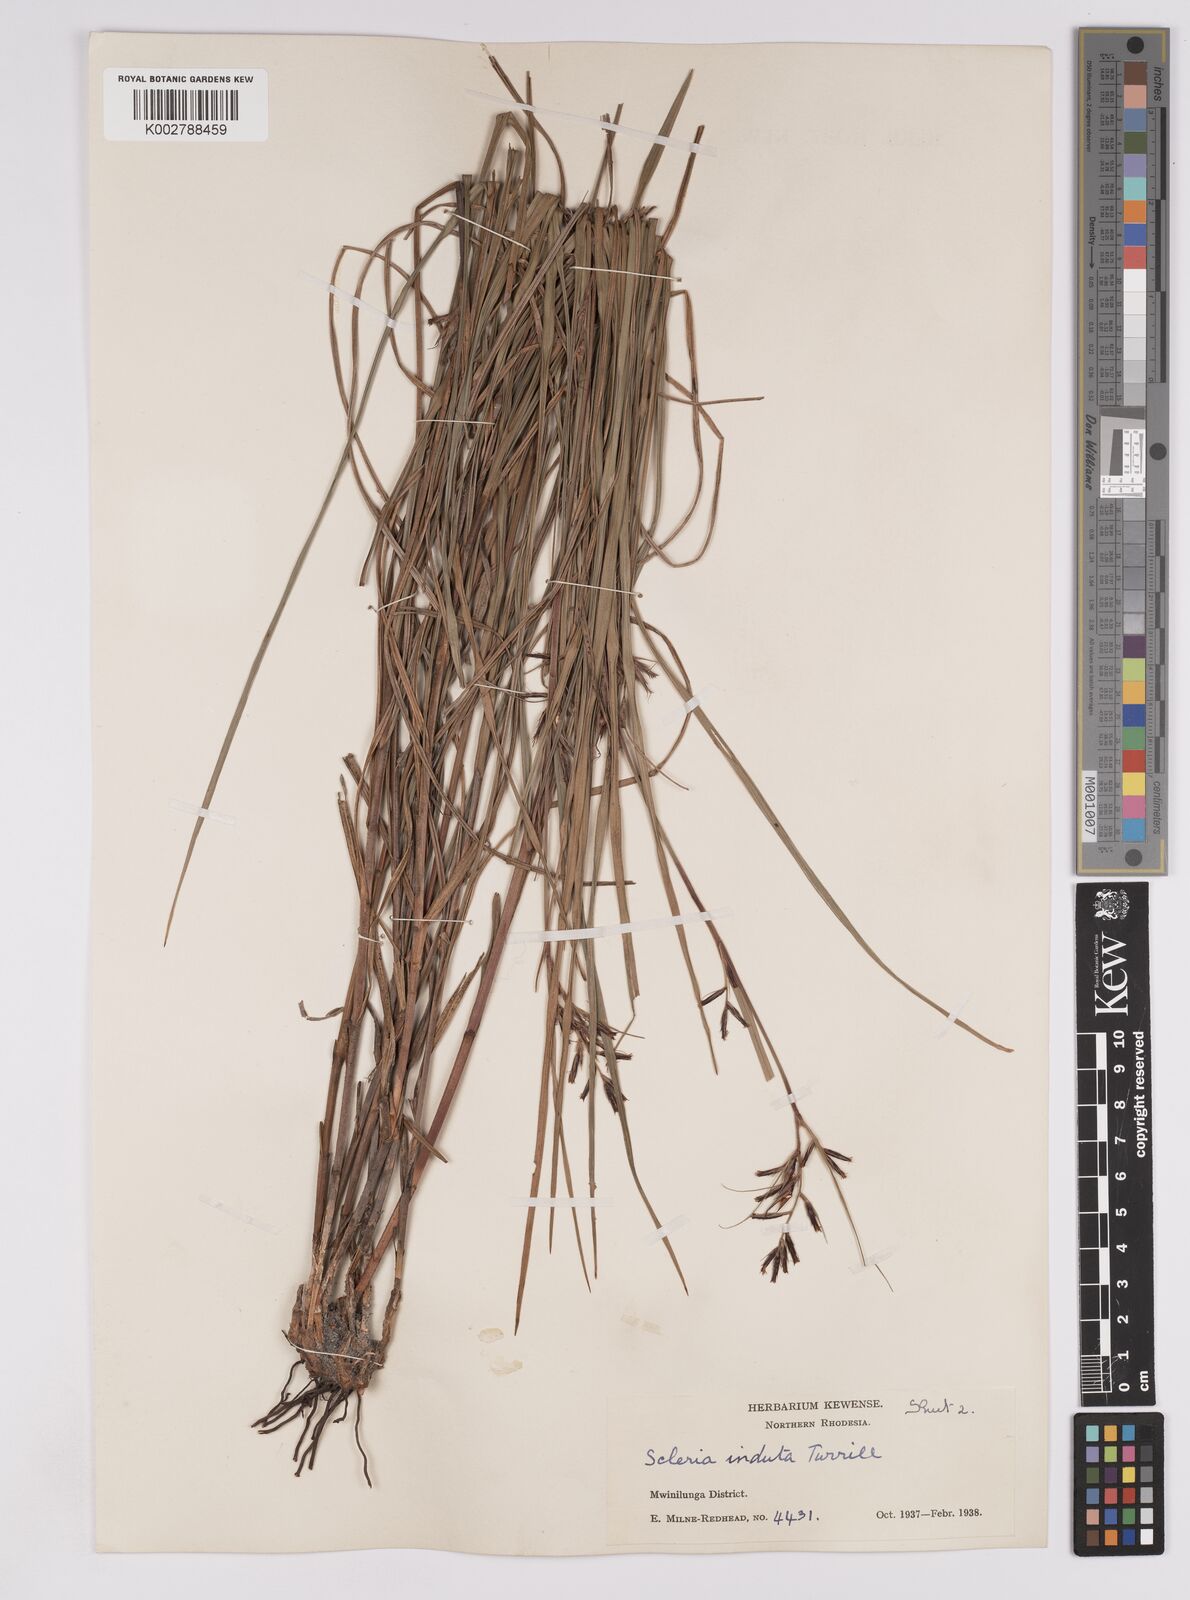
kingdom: Plantae
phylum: Tracheophyta
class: Liliopsida
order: Poales
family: Cyperaceae
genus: Scleria
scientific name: Scleria induta
